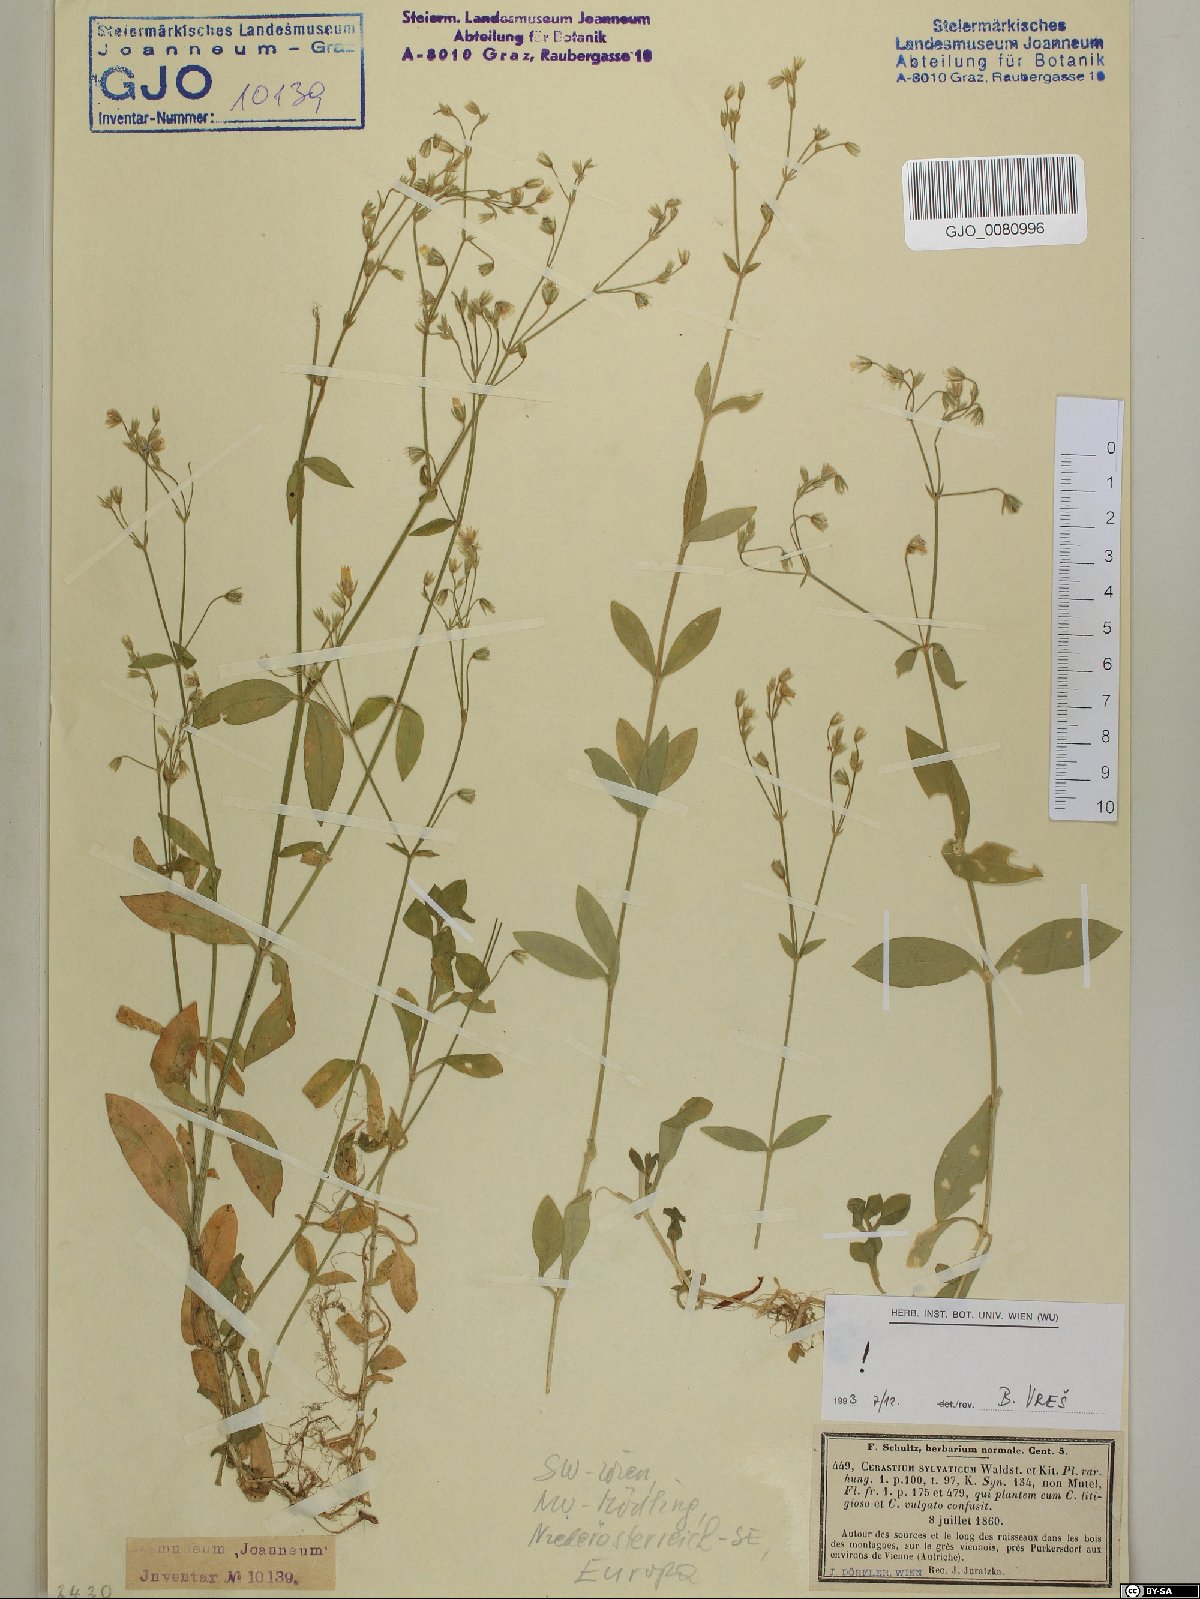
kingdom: Plantae
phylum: Tracheophyta
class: Magnoliopsida
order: Caryophyllales
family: Caryophyllaceae
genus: Cerastium
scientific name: Cerastium sylvaticum
